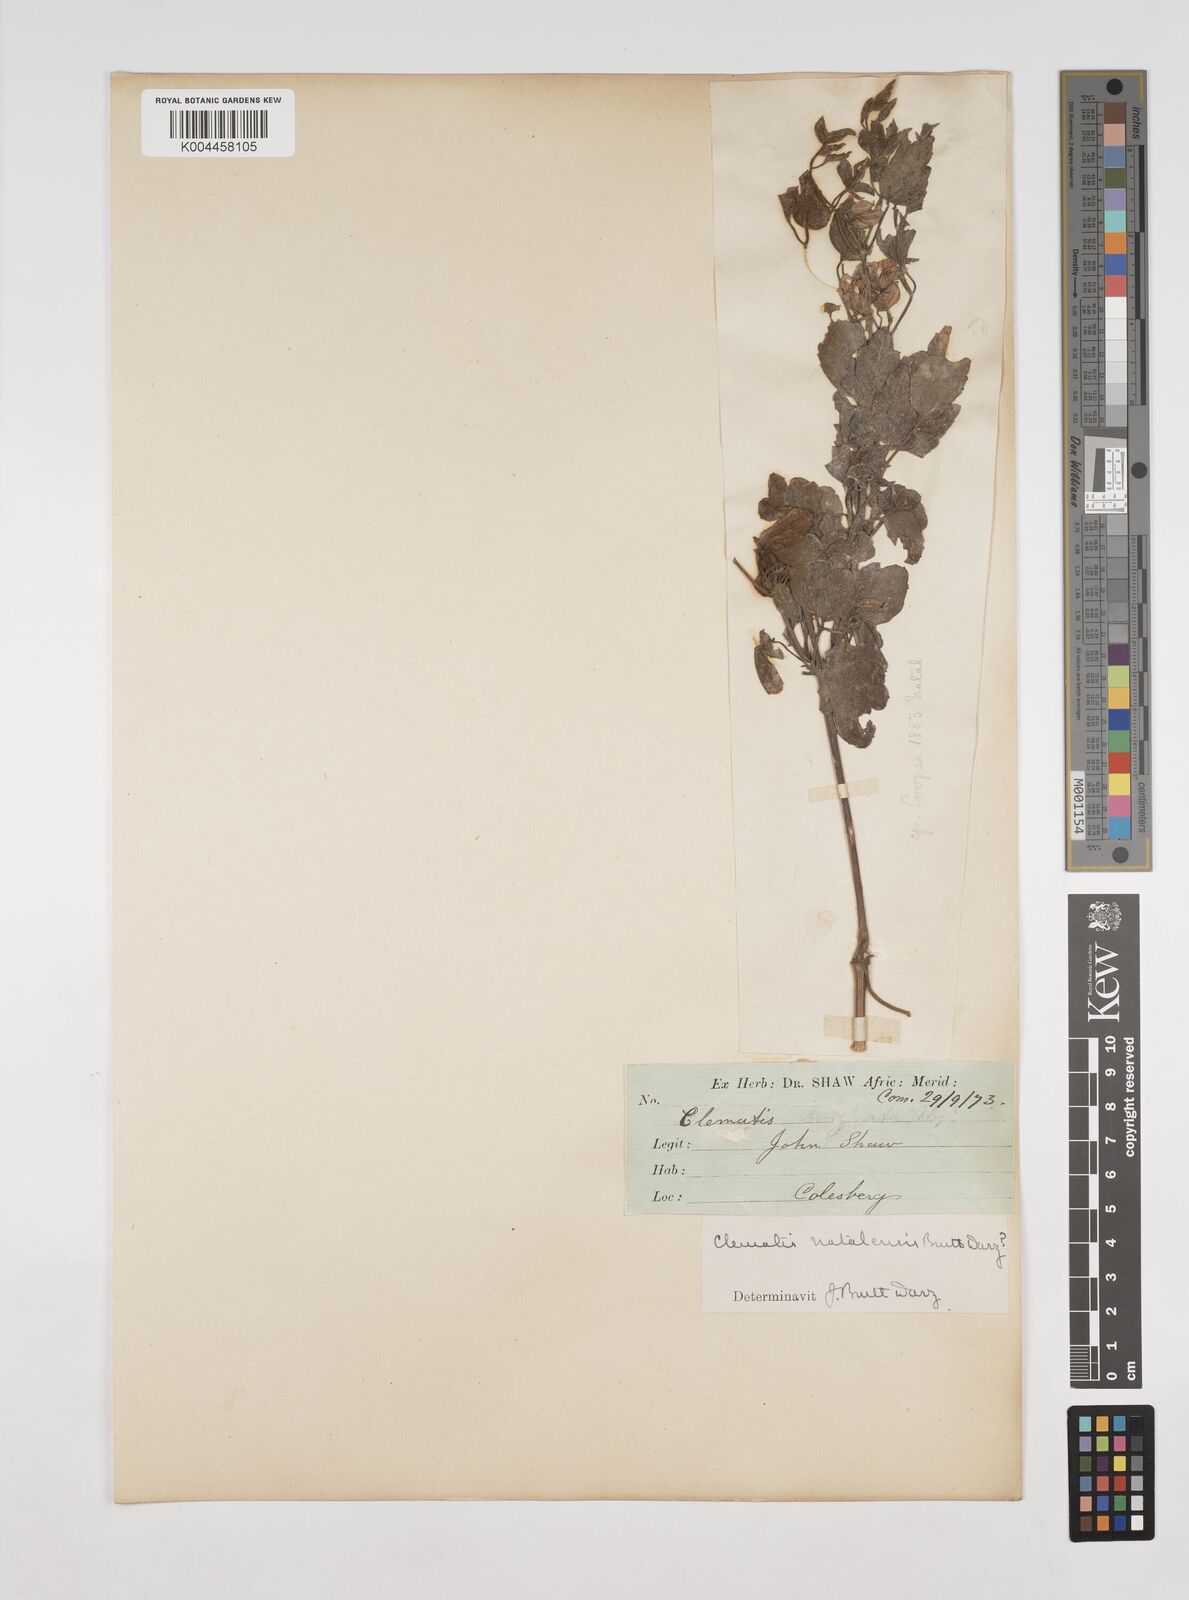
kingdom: Plantae
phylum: Tracheophyta
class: Magnoliopsida
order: Ranunculales
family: Ranunculaceae
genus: Clematis
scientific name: Clematis
